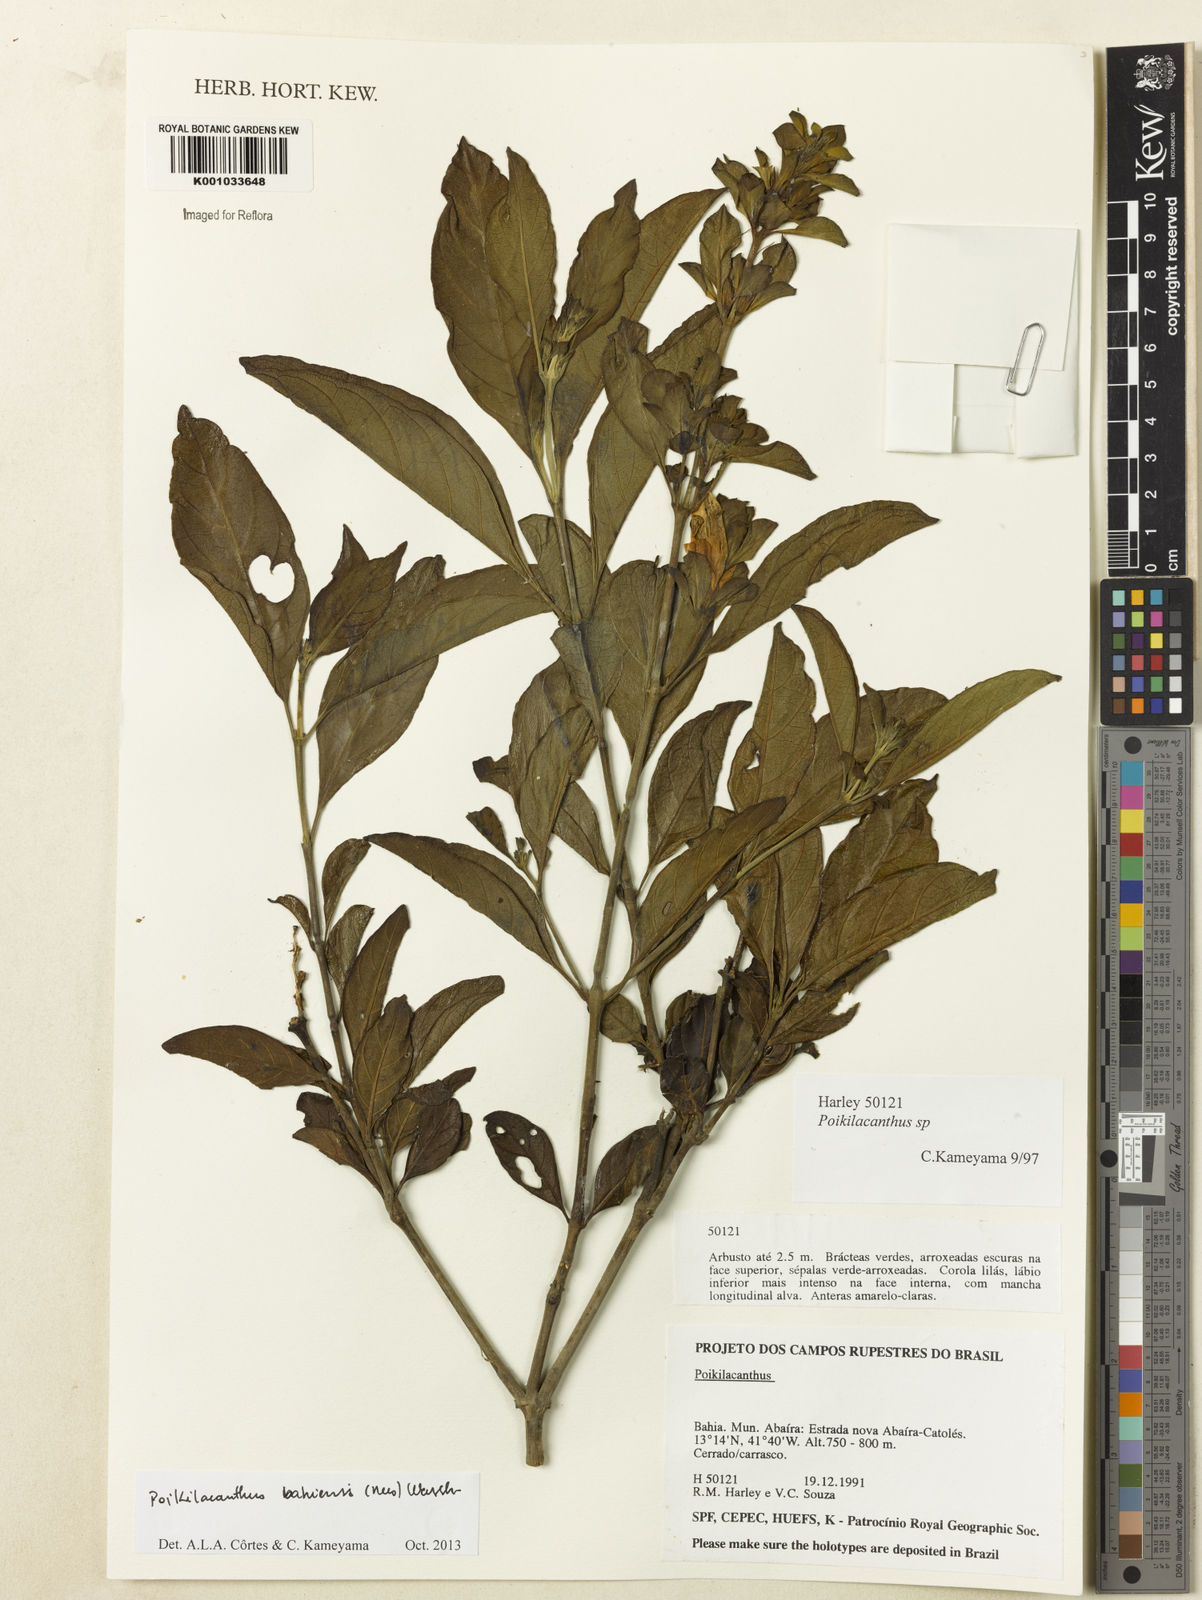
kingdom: Plantae
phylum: Tracheophyta
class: Magnoliopsida
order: Lamiales
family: Acanthaceae
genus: Poikilacanthus
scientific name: Poikilacanthus bahiensis
